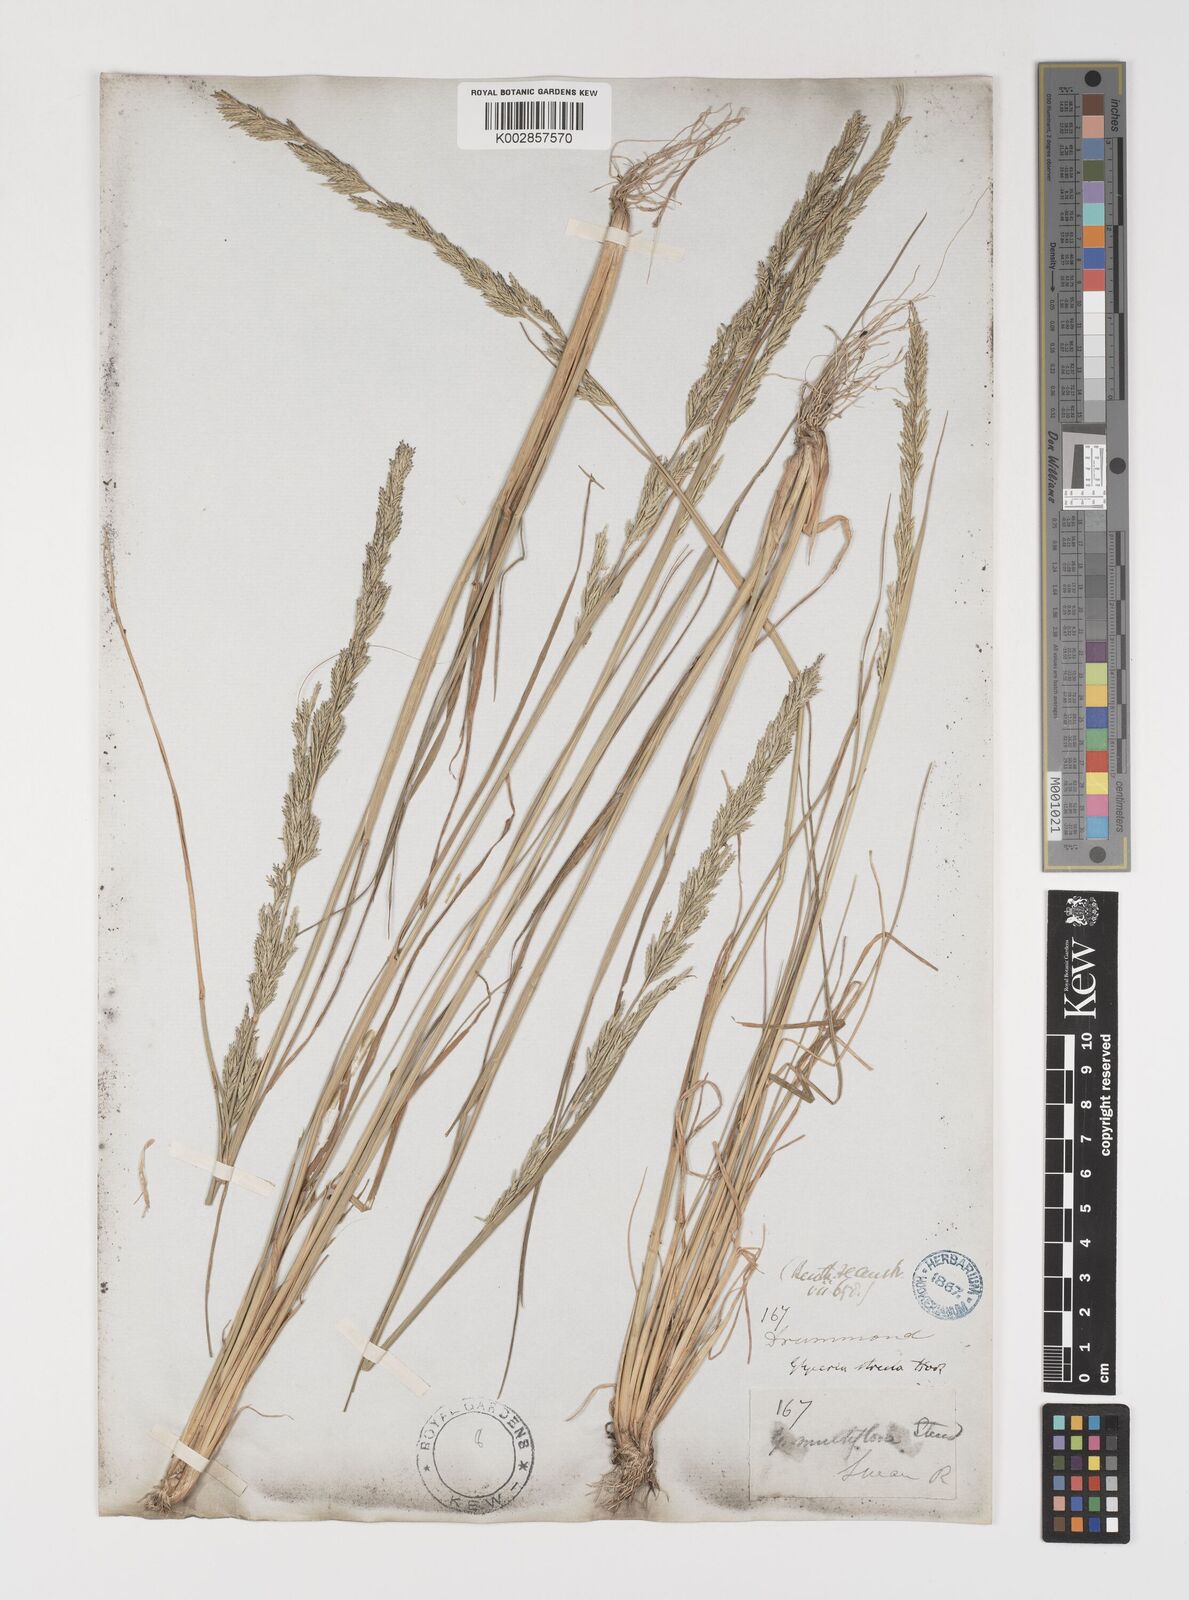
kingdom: Plantae
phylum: Tracheophyta
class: Liliopsida
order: Poales
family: Poaceae
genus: Puccinellia
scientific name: Puccinellia stricta
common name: Australian saltmarsh grass
